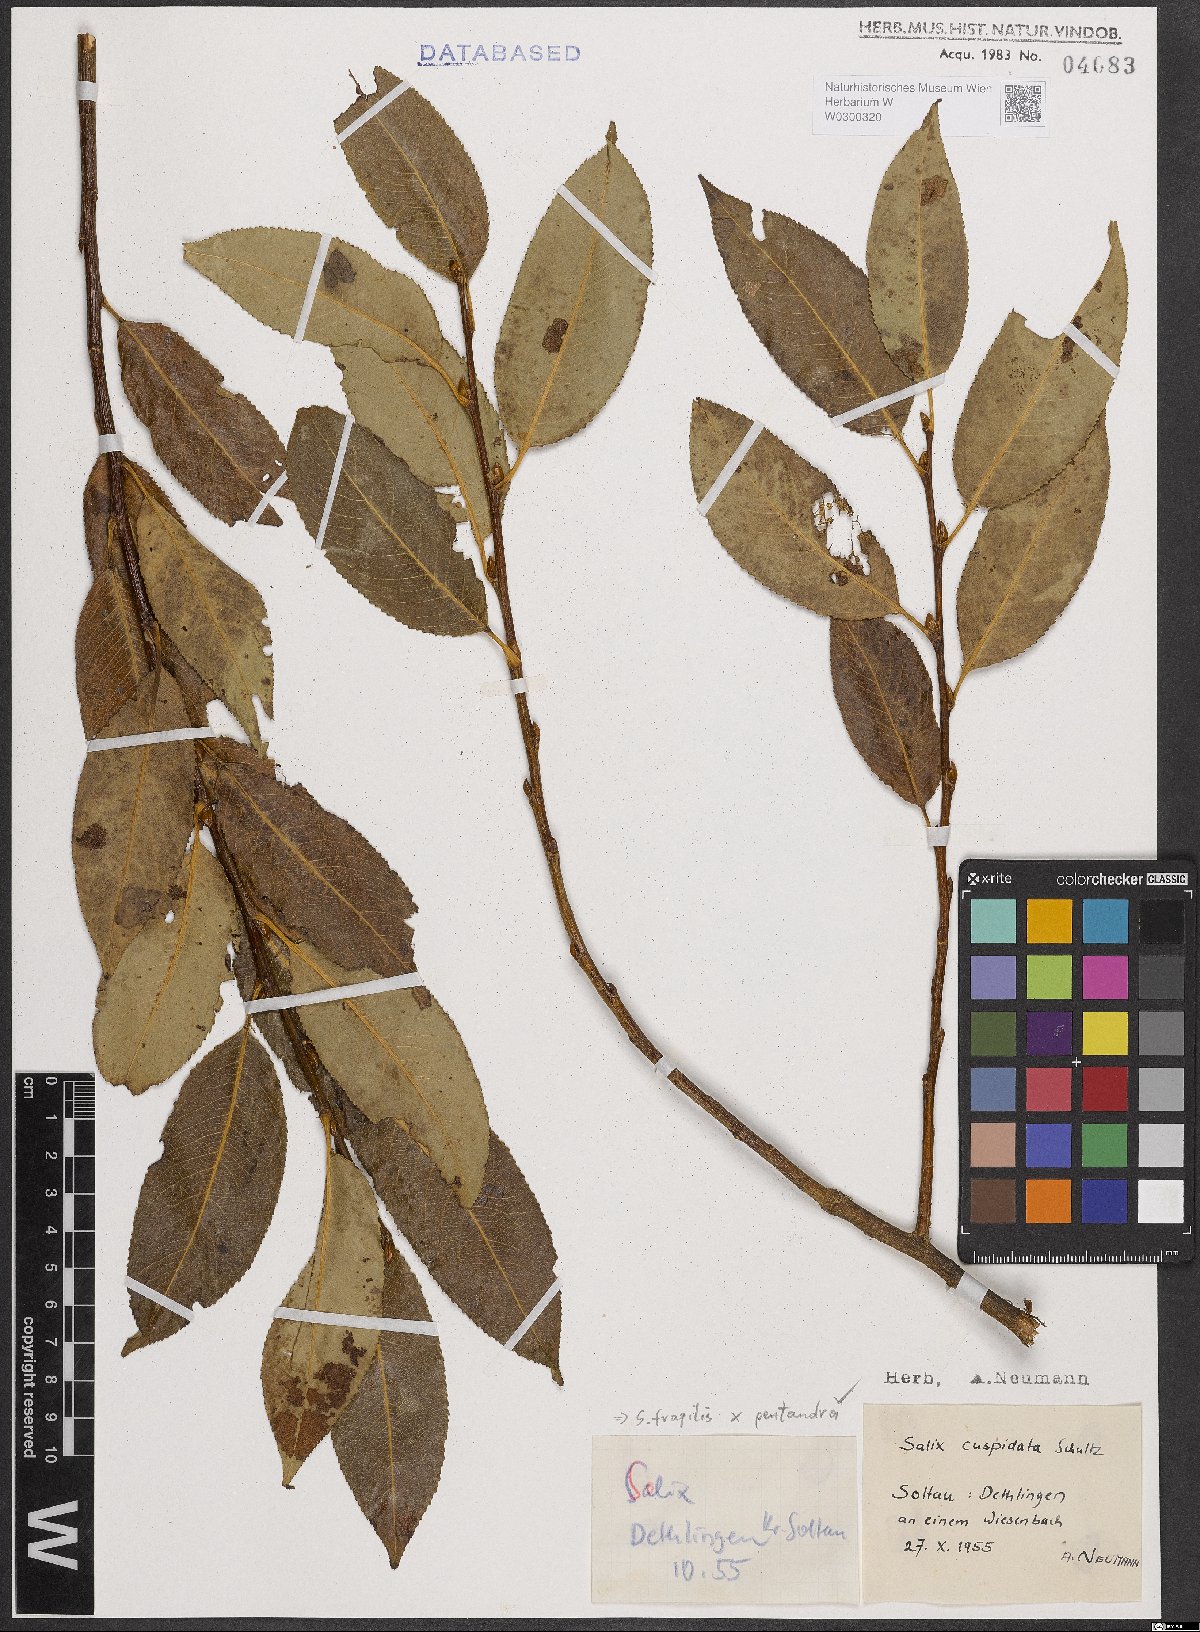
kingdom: Plantae
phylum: Tracheophyta
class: Magnoliopsida
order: Malpighiales
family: Salicaceae
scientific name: Salicaceae
